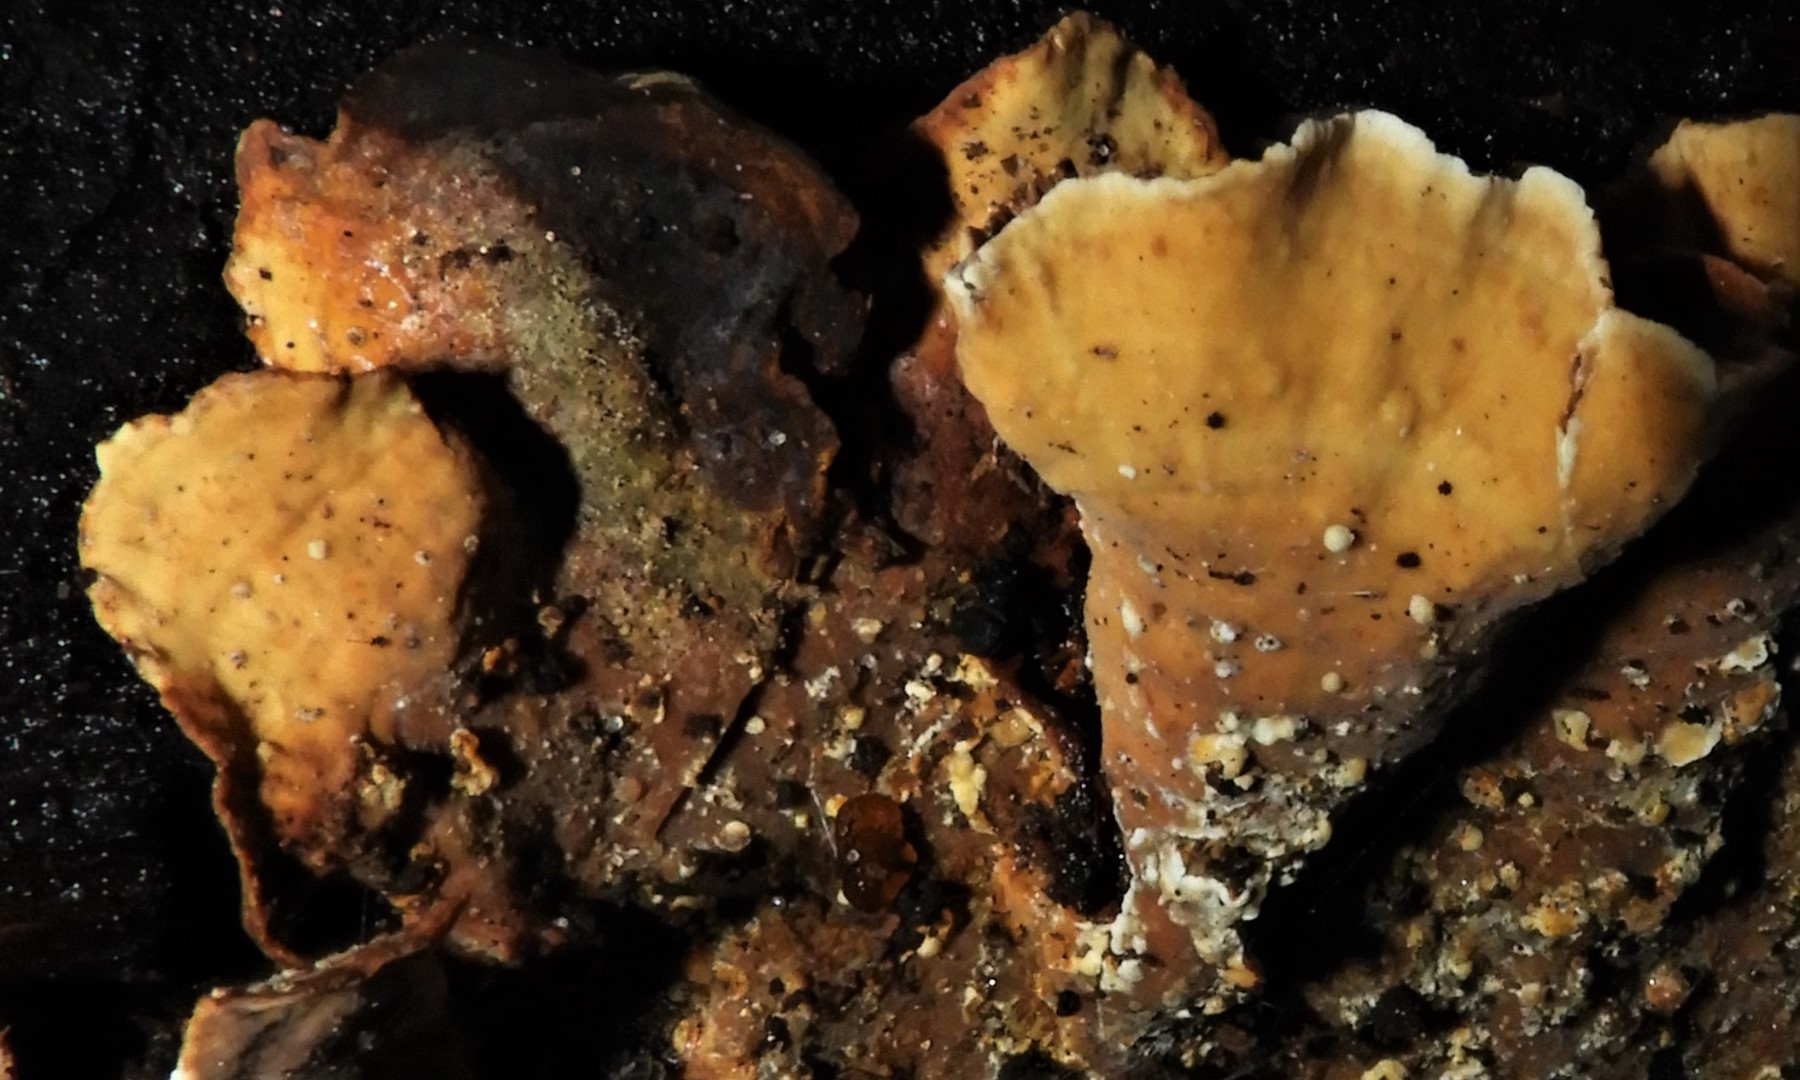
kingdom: Fungi
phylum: Basidiomycota
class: Agaricomycetes
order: Russulales
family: Stereaceae
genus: Stereum
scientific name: Stereum subtomentosum
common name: smuk lædersvamp
